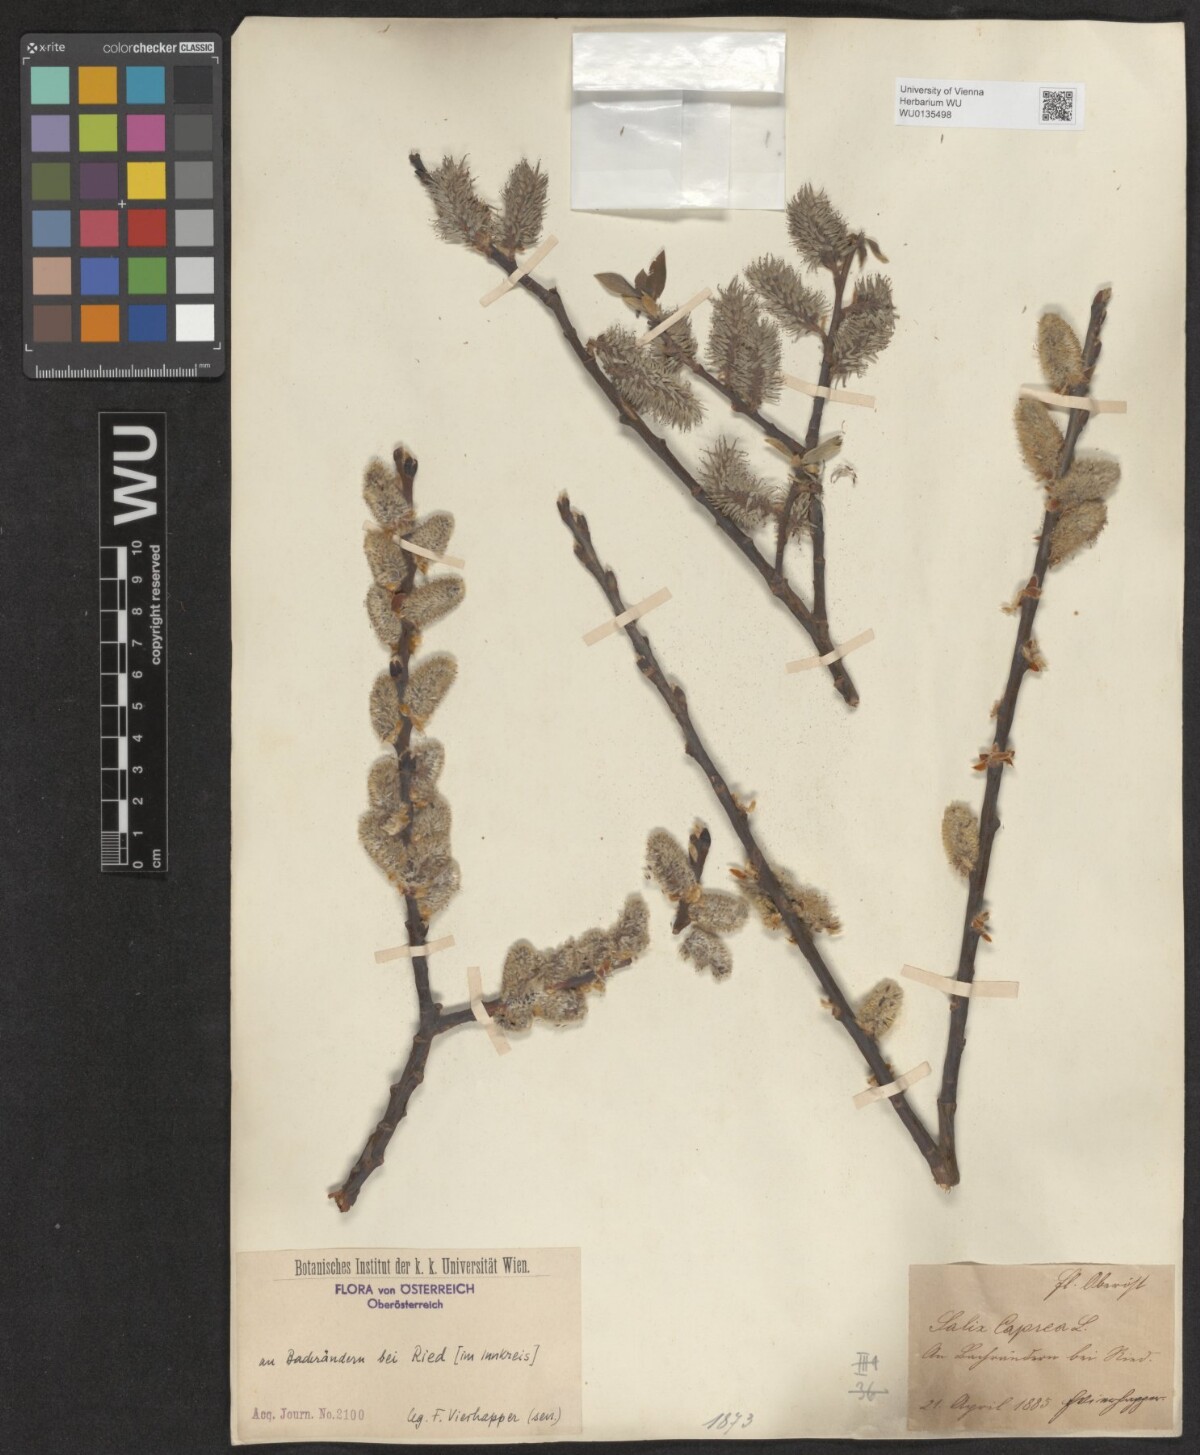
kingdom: Plantae
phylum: Tracheophyta
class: Magnoliopsida
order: Malpighiales
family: Salicaceae
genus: Salix
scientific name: Salix caprea
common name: Goat willow
